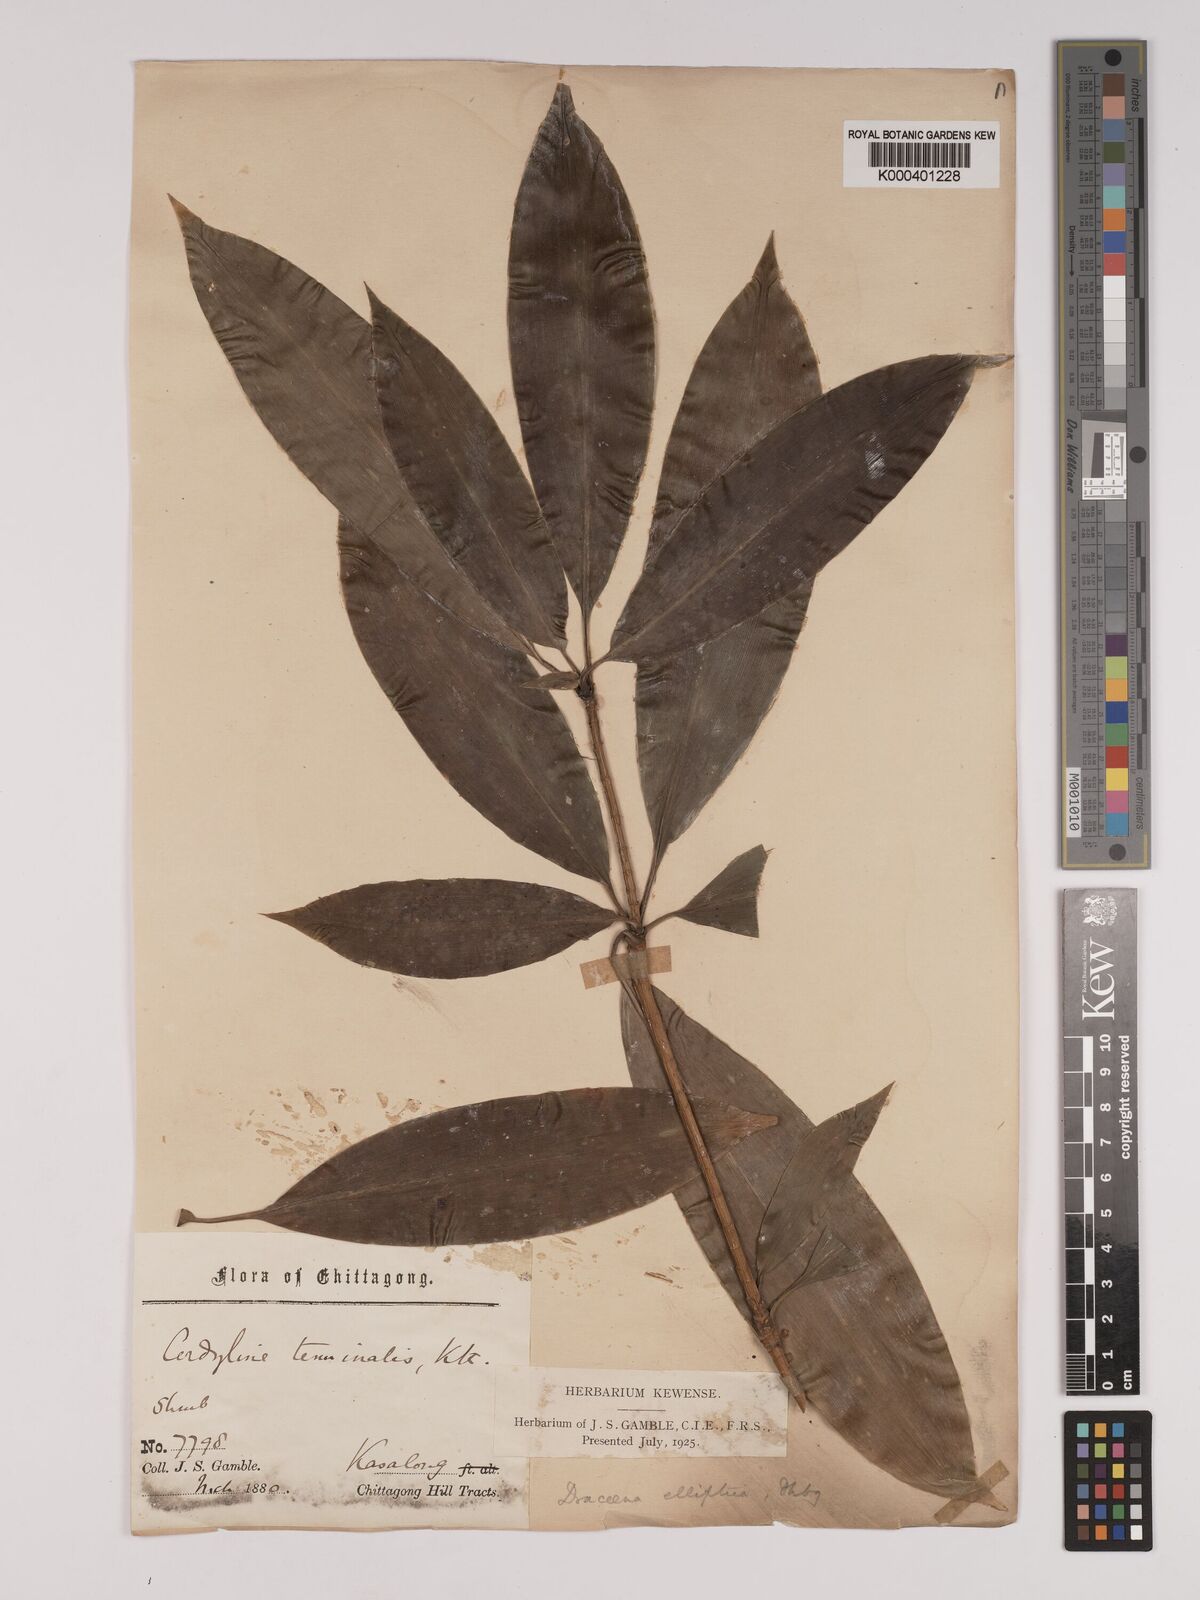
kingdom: Plantae
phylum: Tracheophyta
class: Liliopsida
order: Asparagales
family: Asparagaceae
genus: Dracaena
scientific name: Dracaena elliptica
